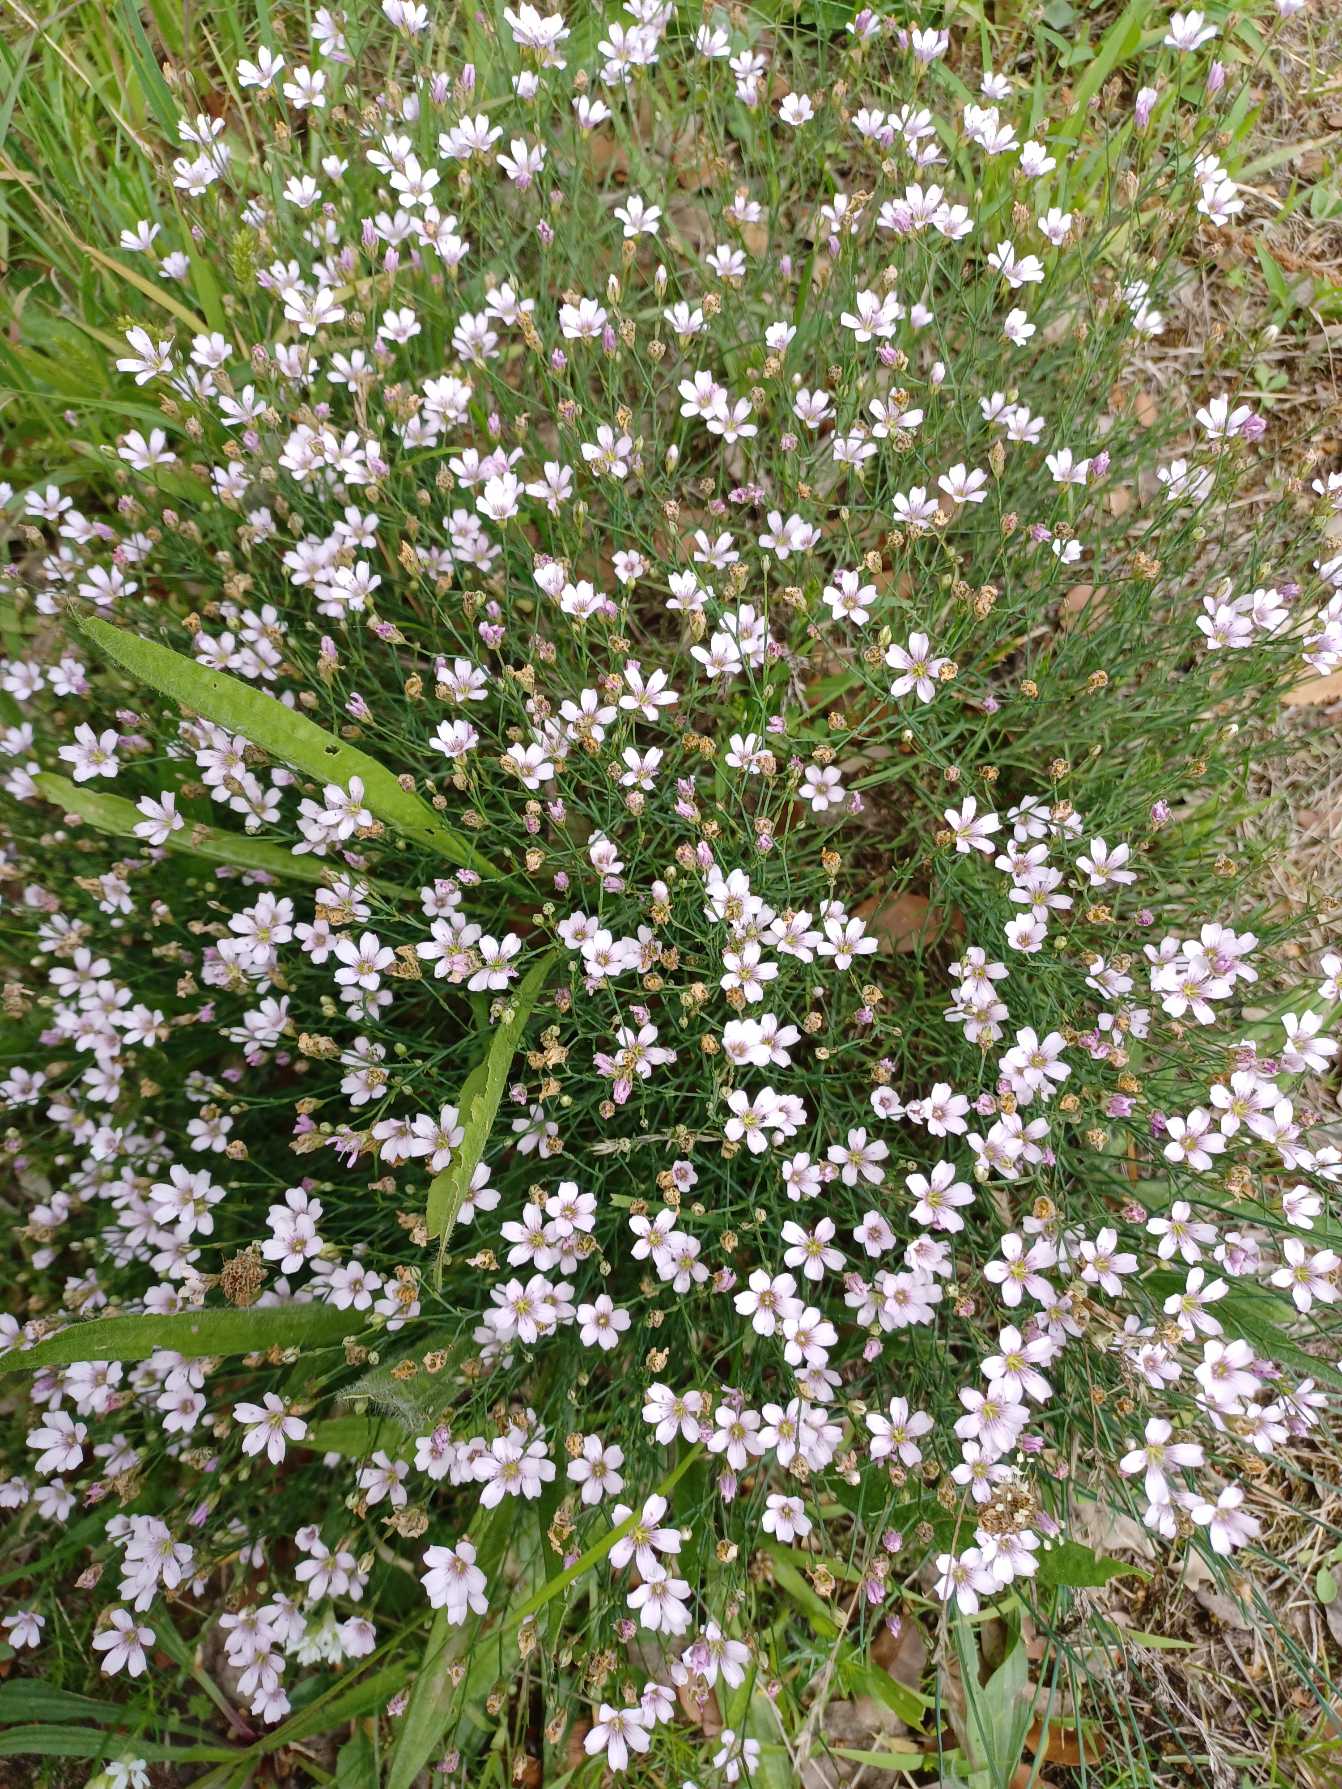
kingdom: Plantae
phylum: Tracheophyta
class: Magnoliopsida
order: Caryophyllales
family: Caryophyllaceae
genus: Petrorhagia
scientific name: Petrorhagia saxifraga
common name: Fjeld-knopnellike
